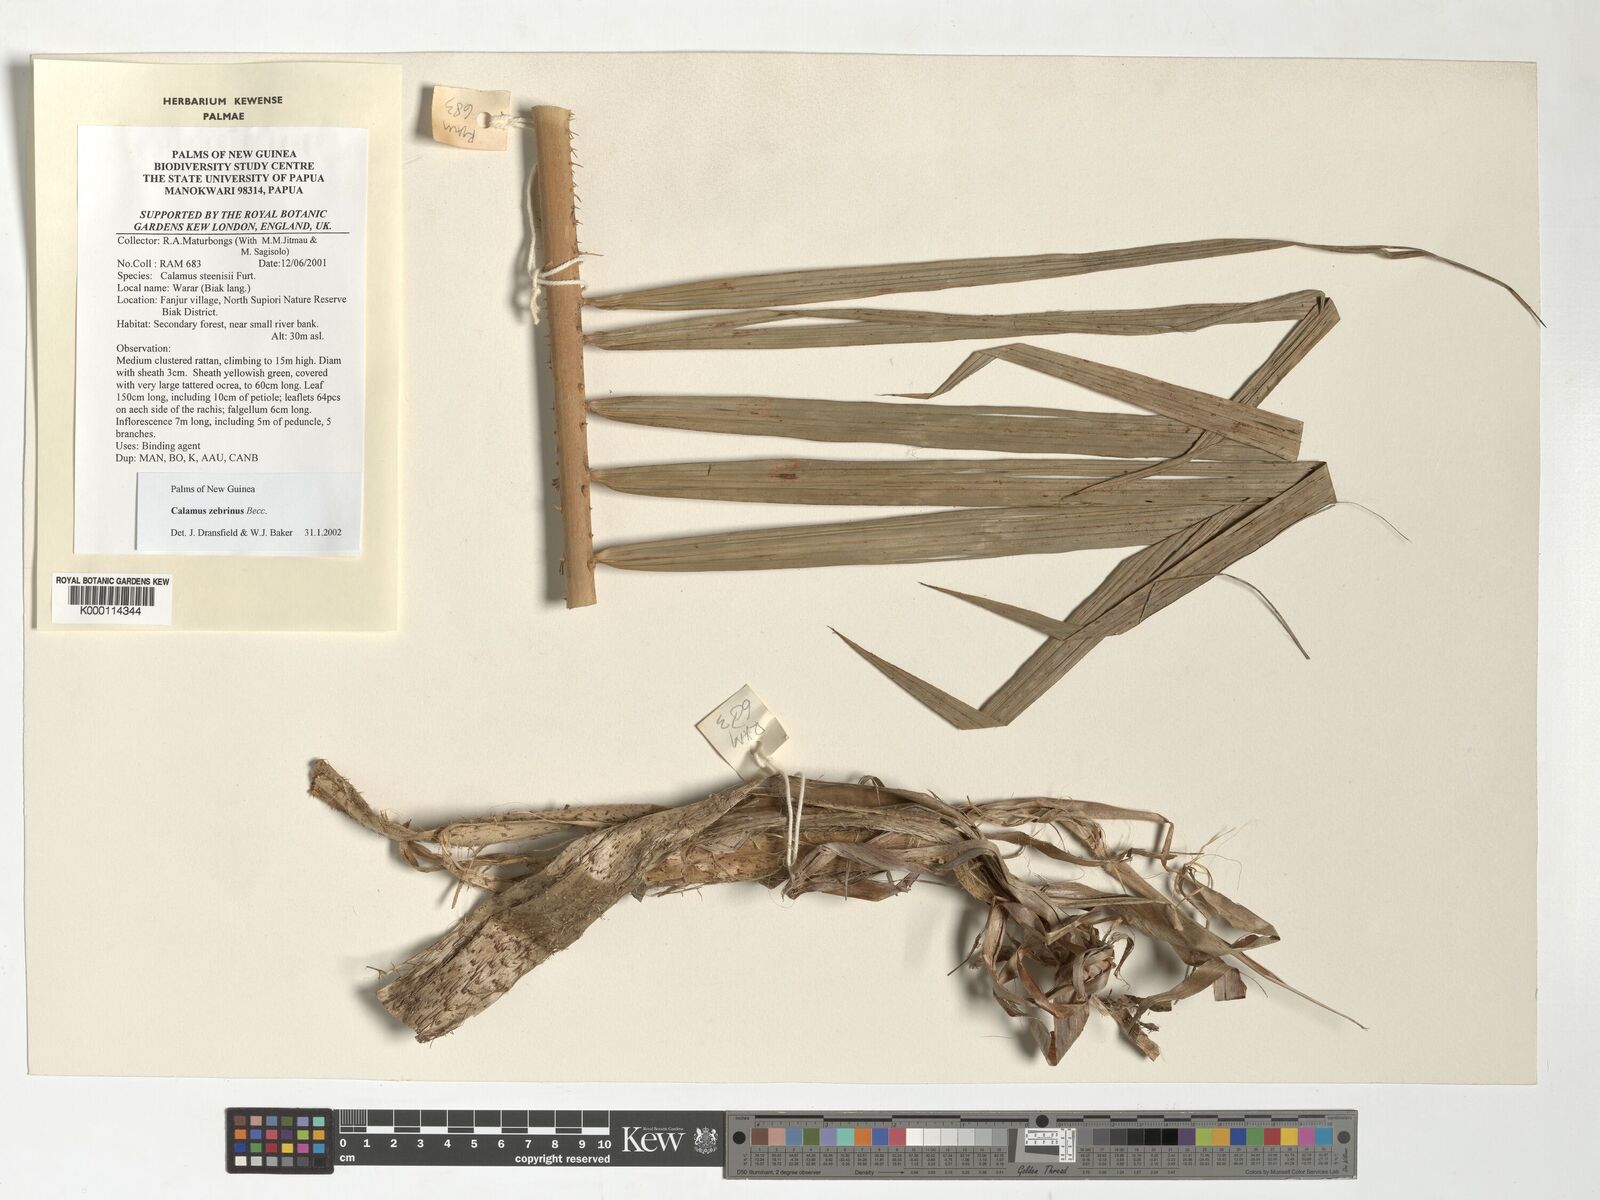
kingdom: Plantae
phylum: Tracheophyta
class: Liliopsida
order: Arecales
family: Arecaceae
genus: Calamus
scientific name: Calamus zebrinus
